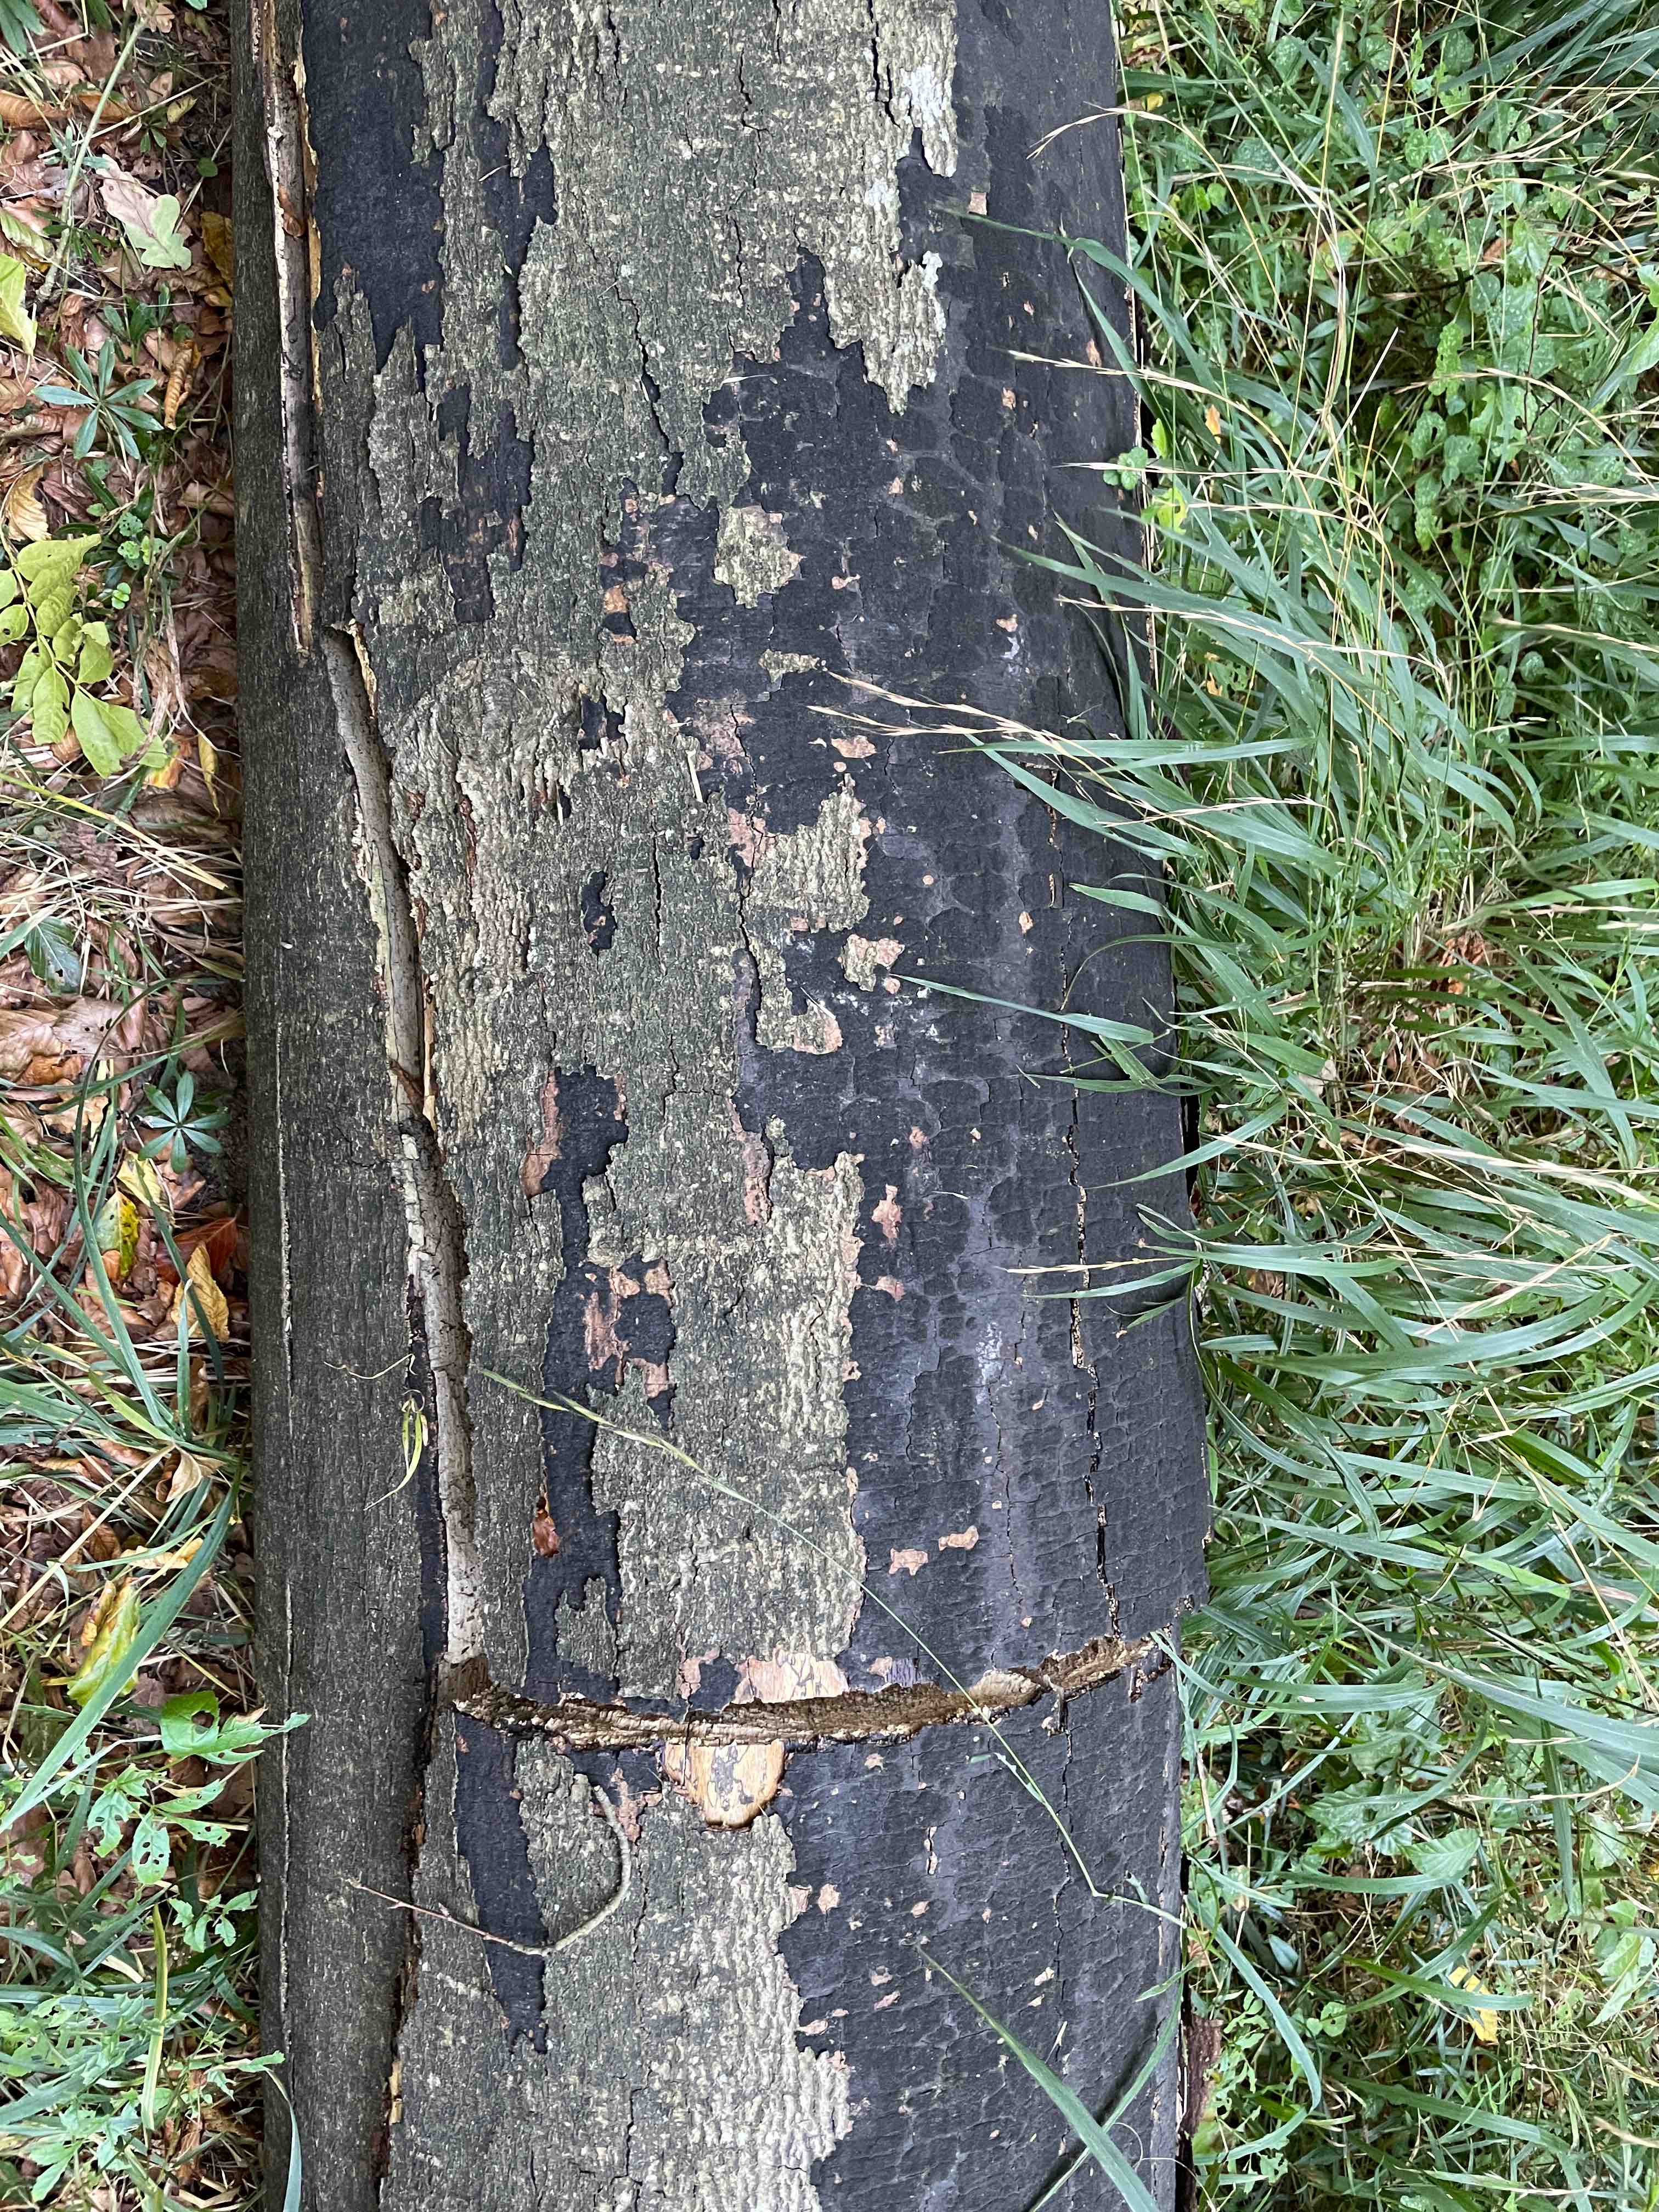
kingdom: Fungi
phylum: Ascomycota
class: Sordariomycetes
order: Xylariales
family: Diatrypaceae
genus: Eutypa
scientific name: Eutypa spinosa
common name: grov kulskorpe
